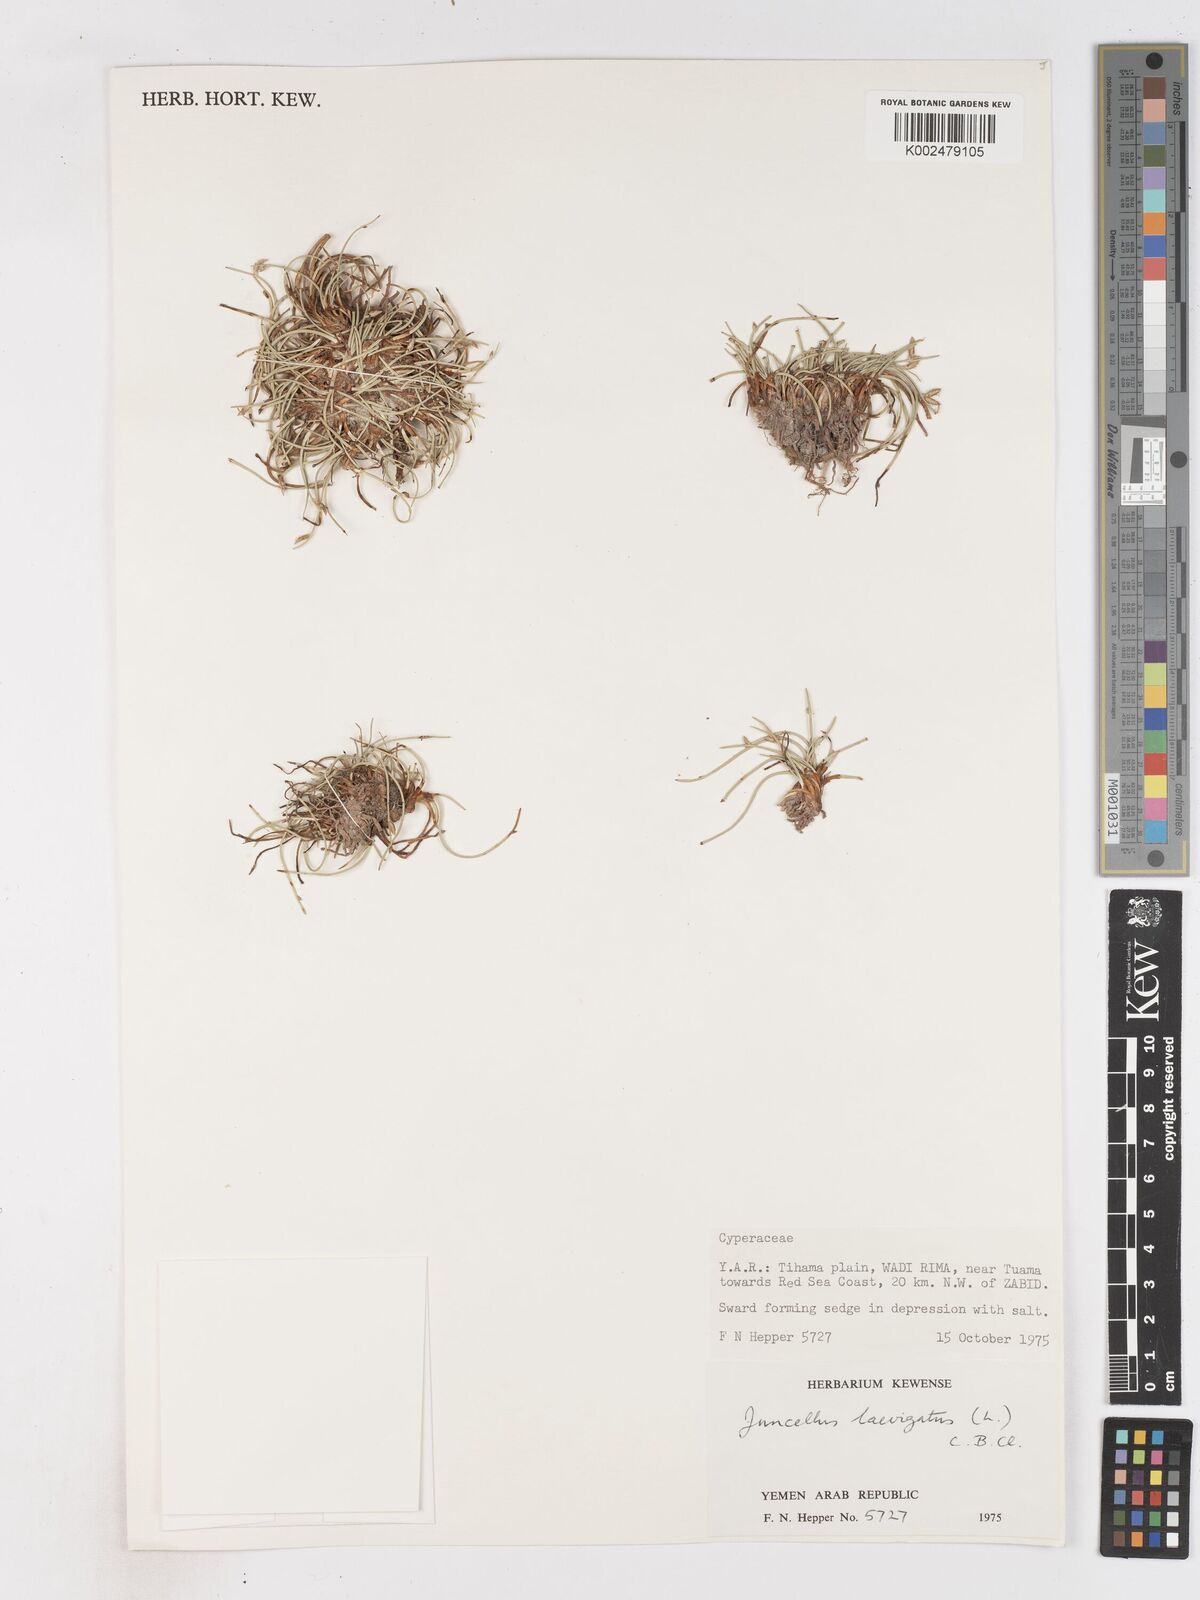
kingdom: Plantae
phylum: Tracheophyta
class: Liliopsida
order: Poales
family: Cyperaceae
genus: Cyperus
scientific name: Cyperus laevigatus
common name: Smooth flat sedge
